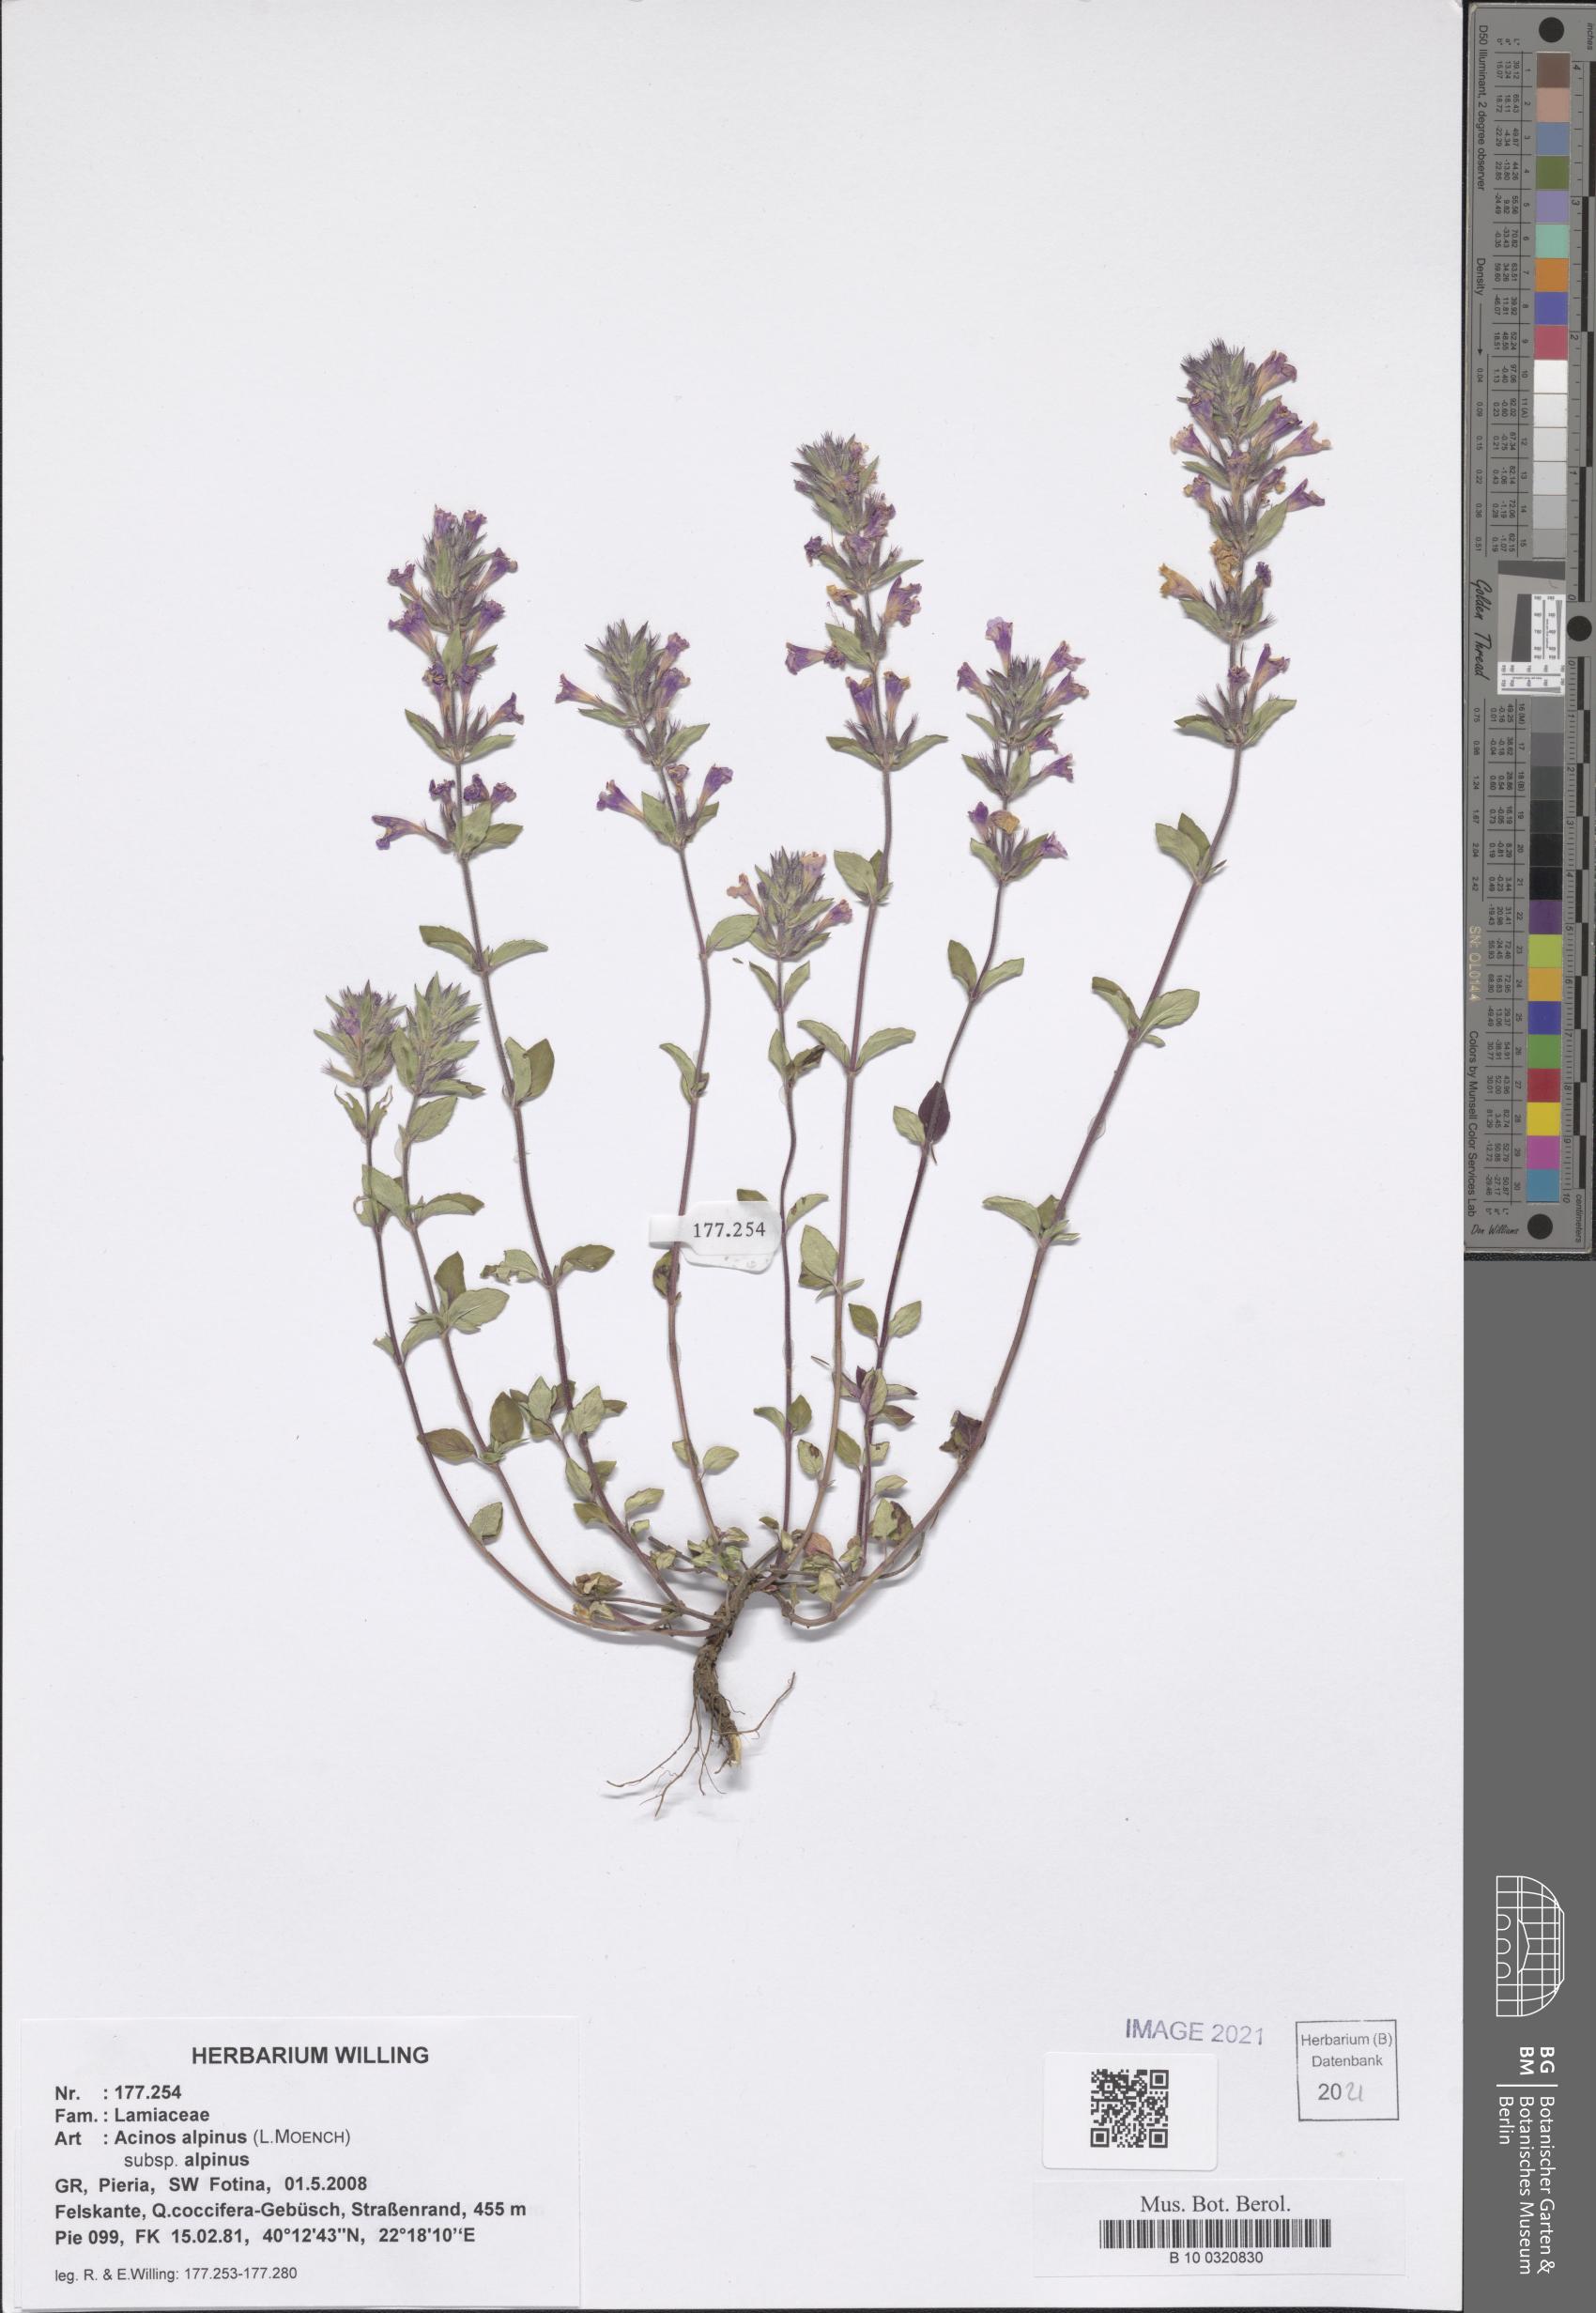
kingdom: Plantae
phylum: Tracheophyta
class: Magnoliopsida
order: Lamiales
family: Lamiaceae
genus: Clinopodium
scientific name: Clinopodium alpinum
